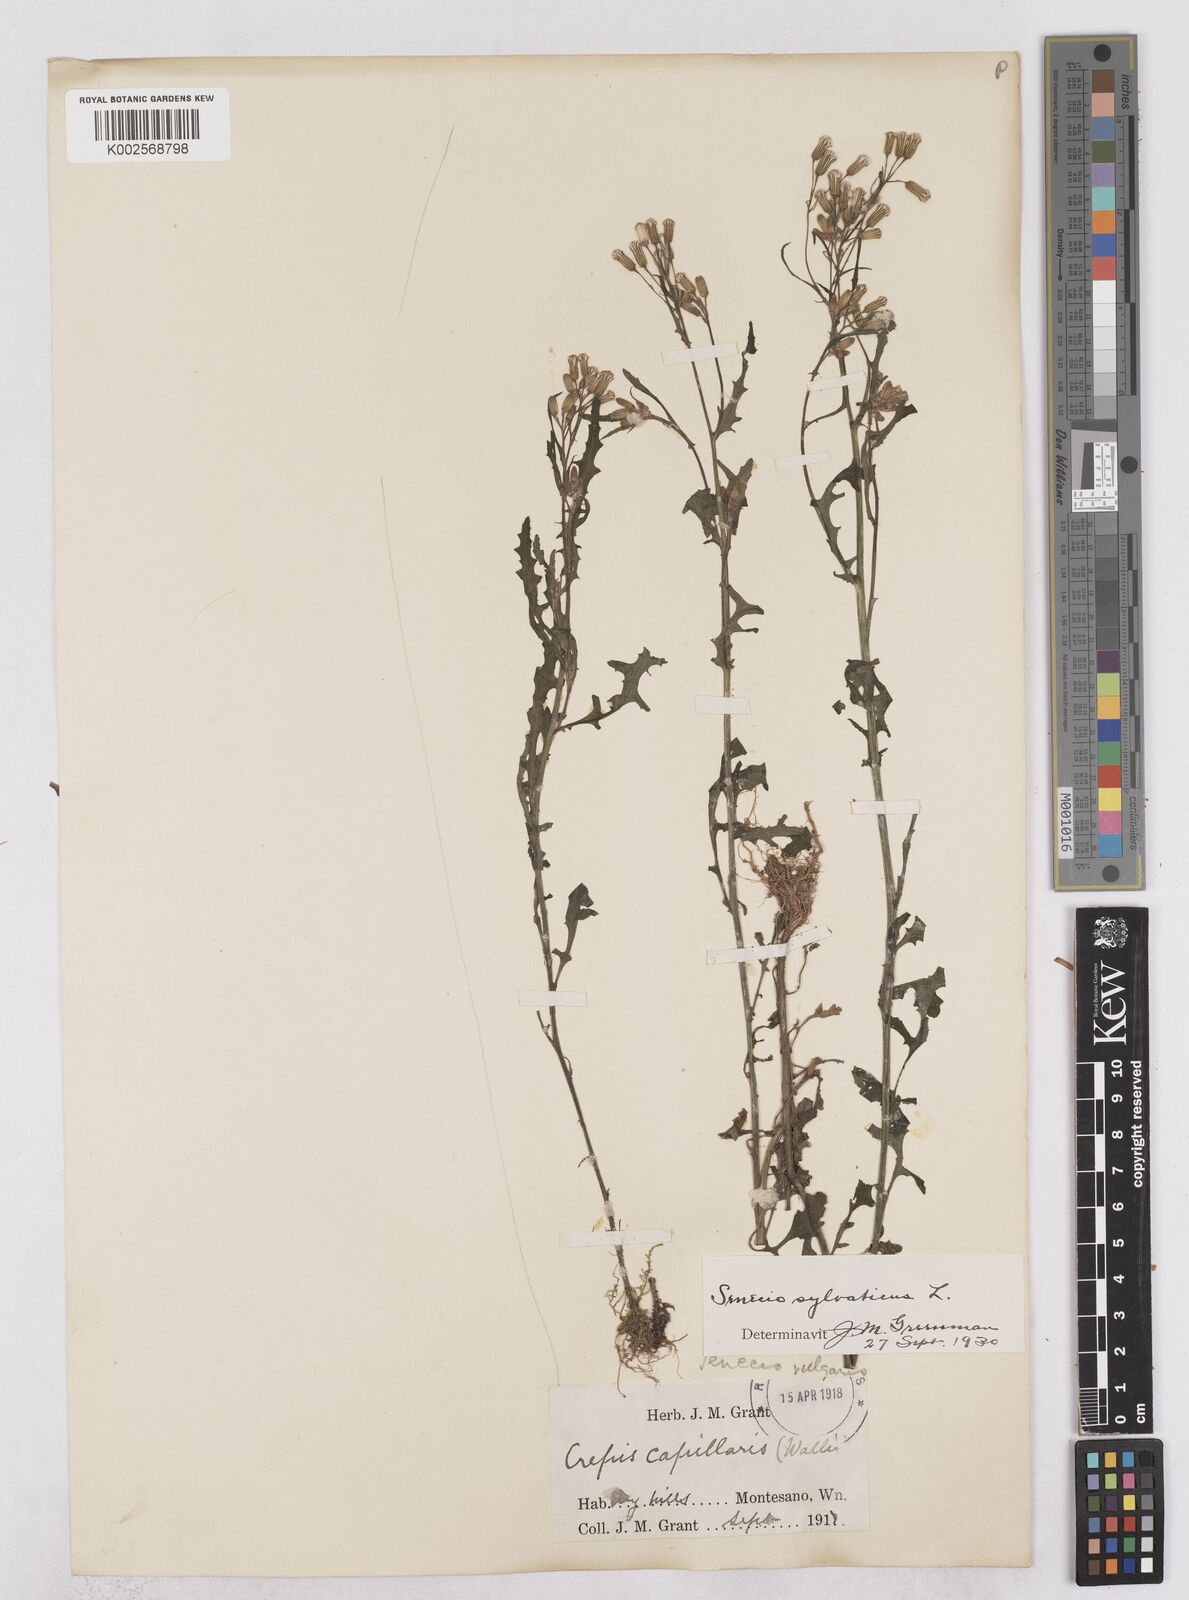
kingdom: Plantae
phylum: Tracheophyta
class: Magnoliopsida
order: Asterales
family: Asteraceae
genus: Senecio
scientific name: Senecio sylvaticus
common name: Woodland ragwort
